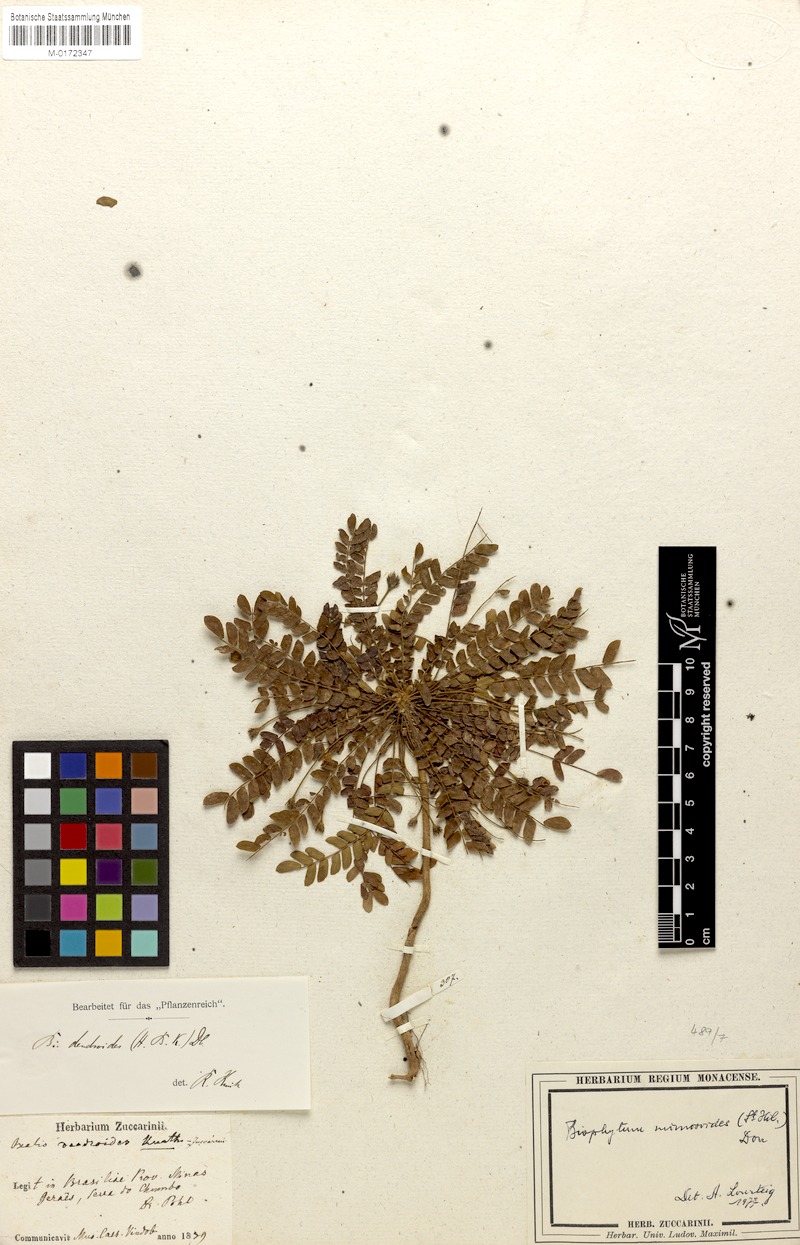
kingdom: Plantae
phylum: Tracheophyta
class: Magnoliopsida
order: Oxalidales
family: Oxalidaceae
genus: Biophytum
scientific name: Biophytum mimosoides
